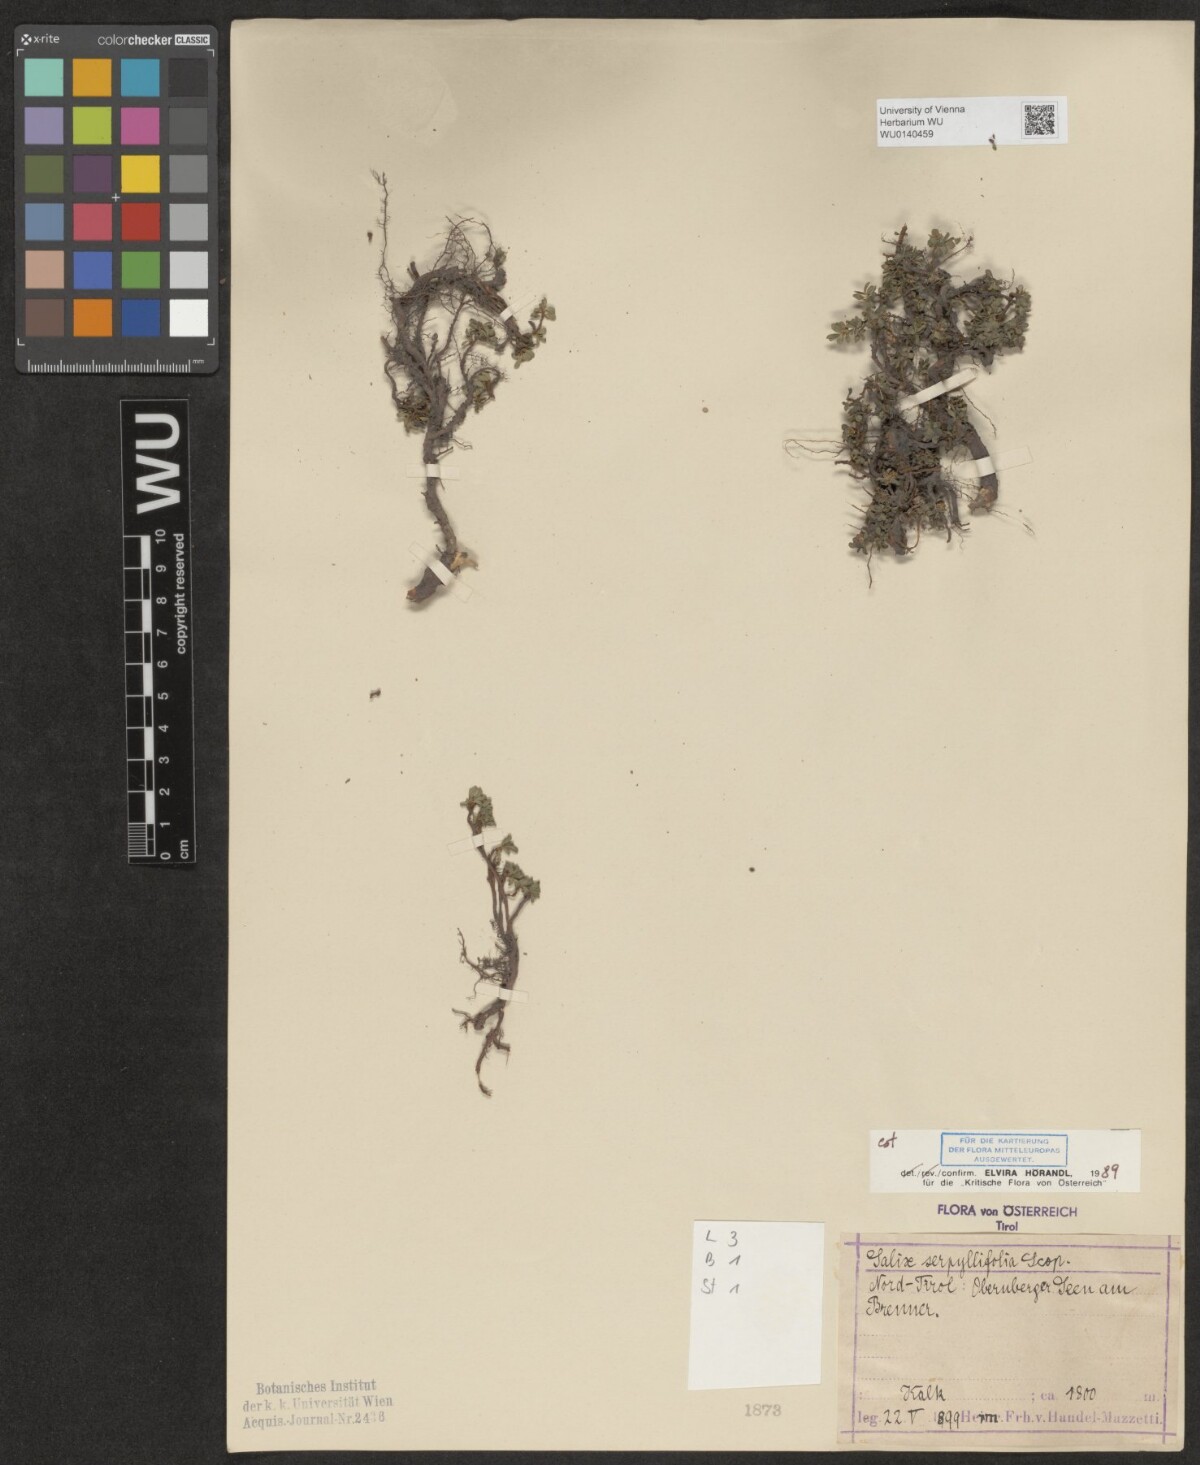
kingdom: Plantae
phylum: Tracheophyta
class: Magnoliopsida
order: Malpighiales
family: Salicaceae
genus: Salix
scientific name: Salix serpillifolia
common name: Thyme-leaf willow
